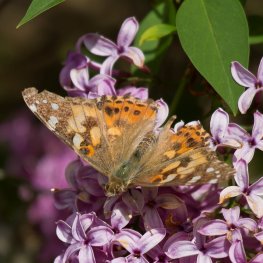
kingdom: Animalia
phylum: Arthropoda
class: Insecta
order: Lepidoptera
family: Nymphalidae
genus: Vanessa
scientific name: Vanessa cardui
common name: Painted Lady
